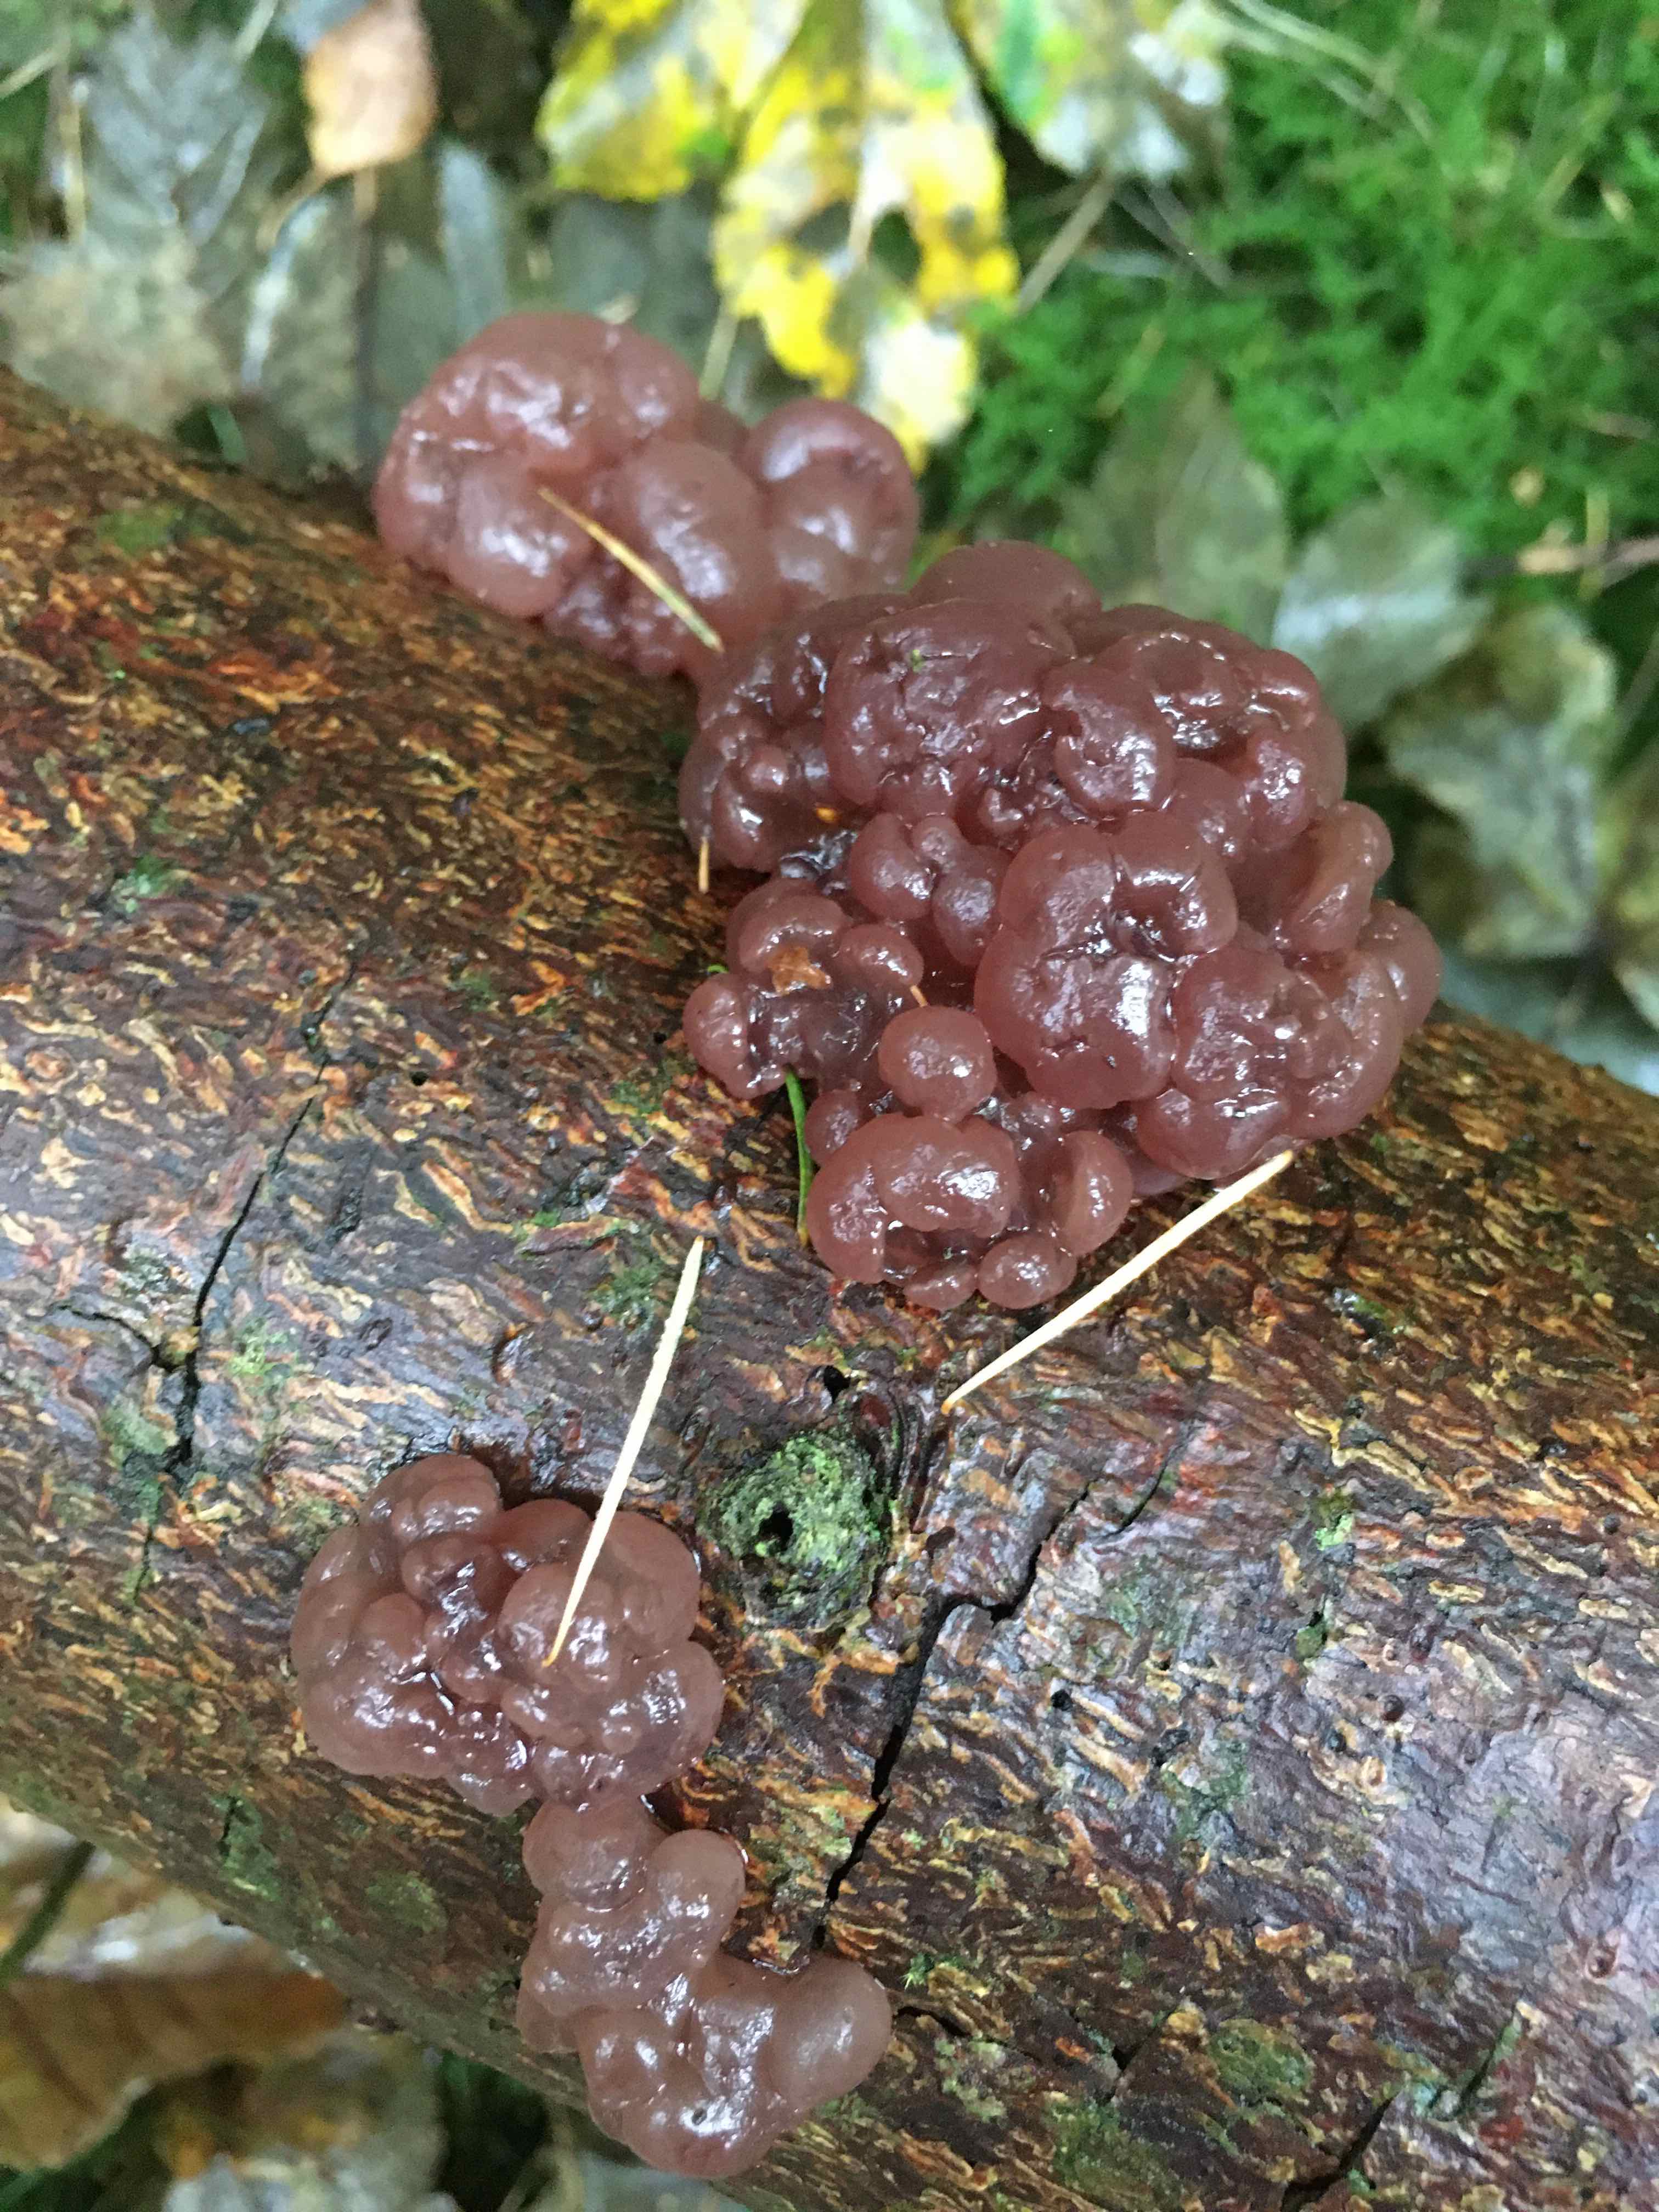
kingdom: Fungi
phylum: Ascomycota
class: Leotiomycetes
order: Helotiales
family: Gelatinodiscaceae
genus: Ascotremella
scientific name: Ascotremella faginea
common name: hjerne-bævreskive
